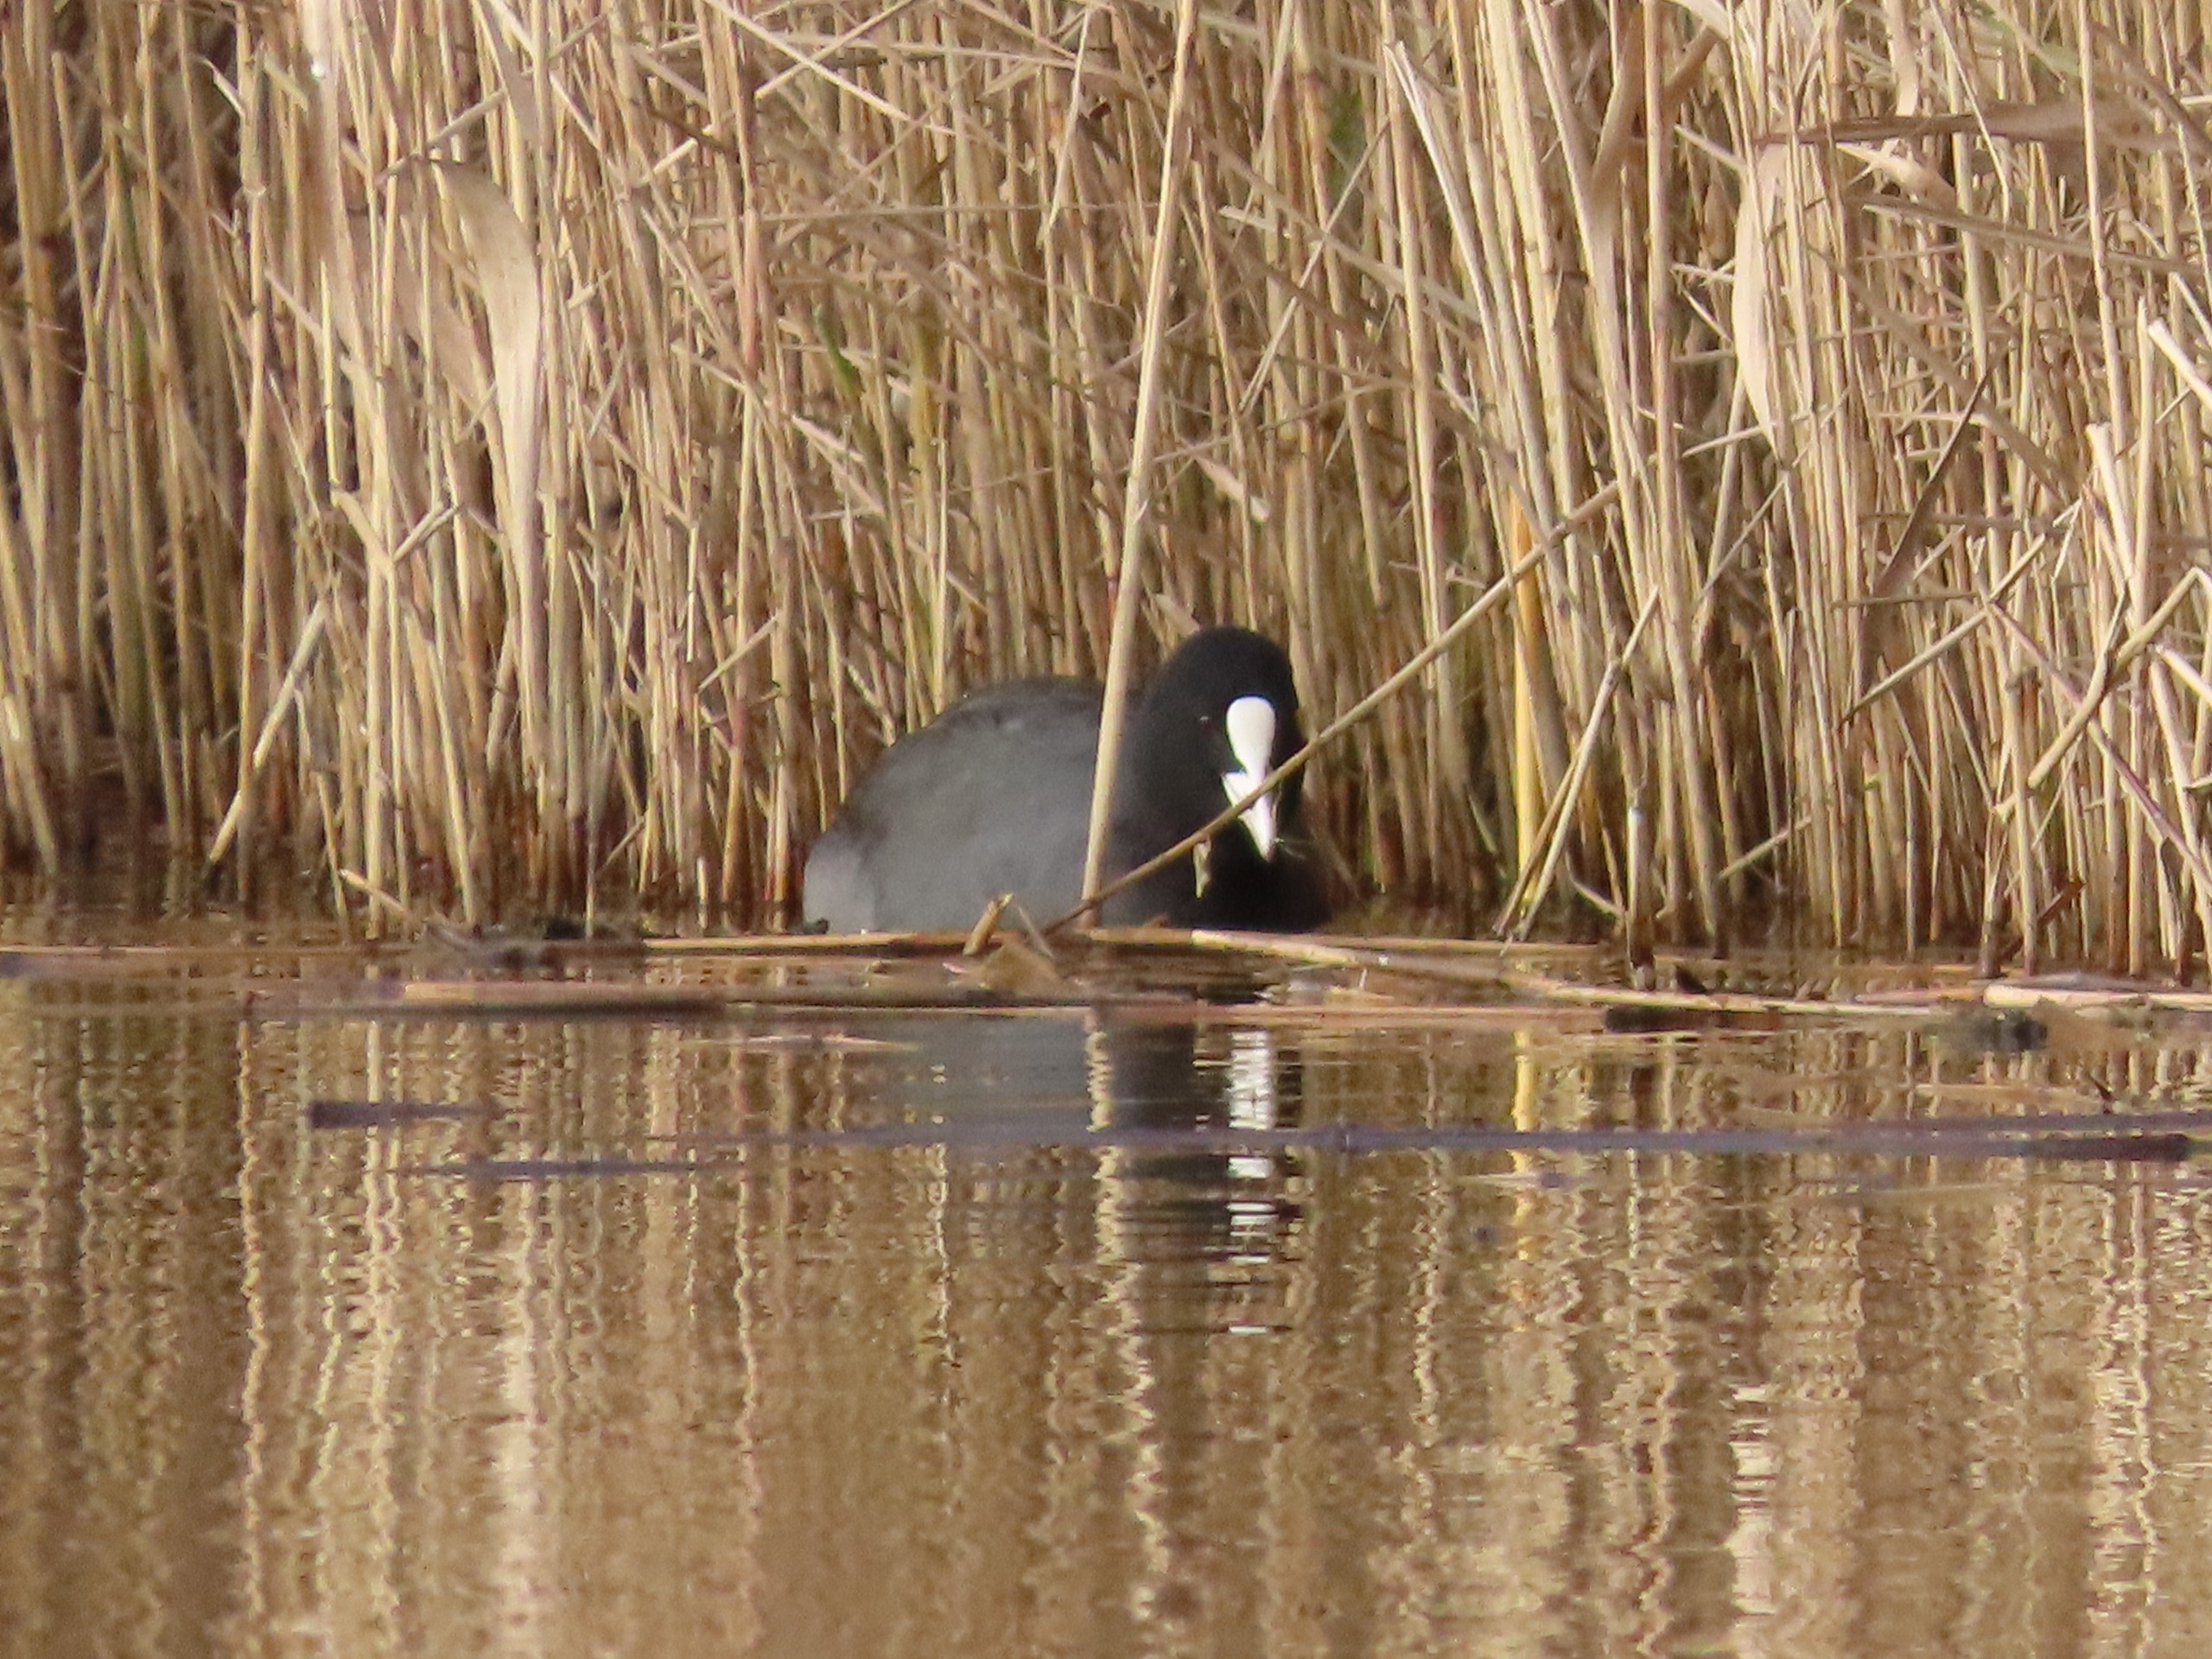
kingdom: Animalia
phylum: Chordata
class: Aves
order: Gruiformes
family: Rallidae
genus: Fulica
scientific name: Fulica atra
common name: Blishøne
